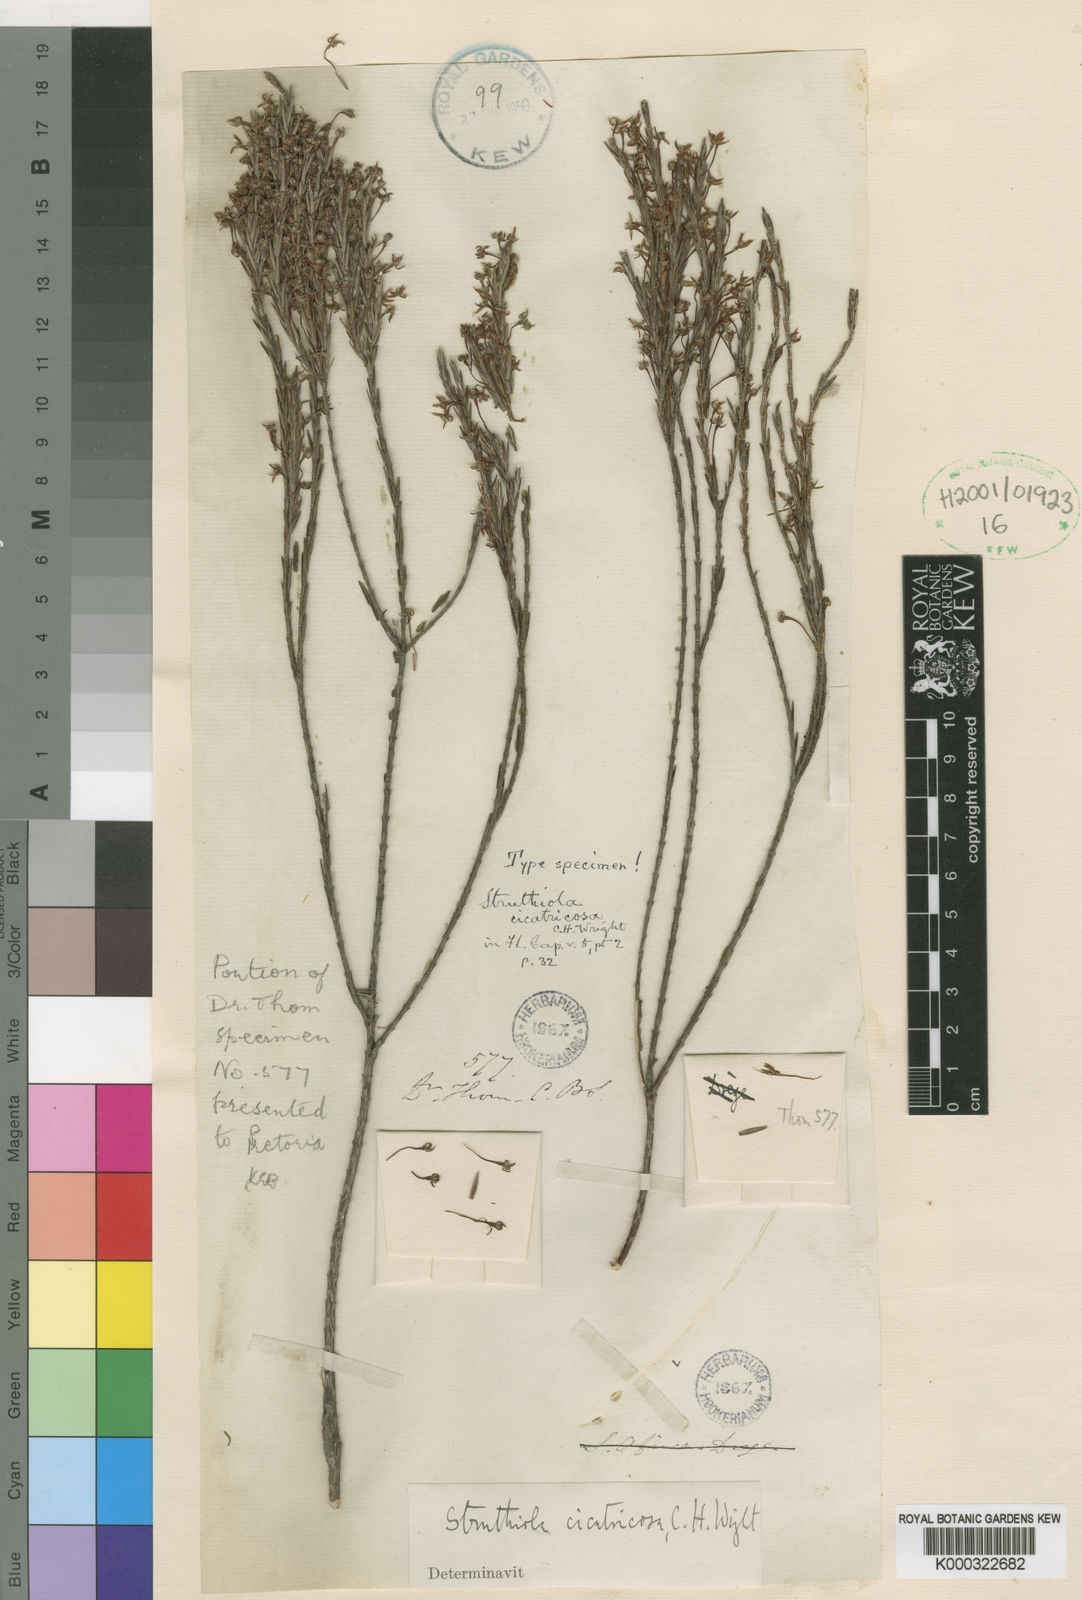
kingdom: Plantae
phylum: Tracheophyta
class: Magnoliopsida
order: Malvales
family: Thymelaeaceae
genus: Struthiola
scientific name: Struthiola cicatricosa
